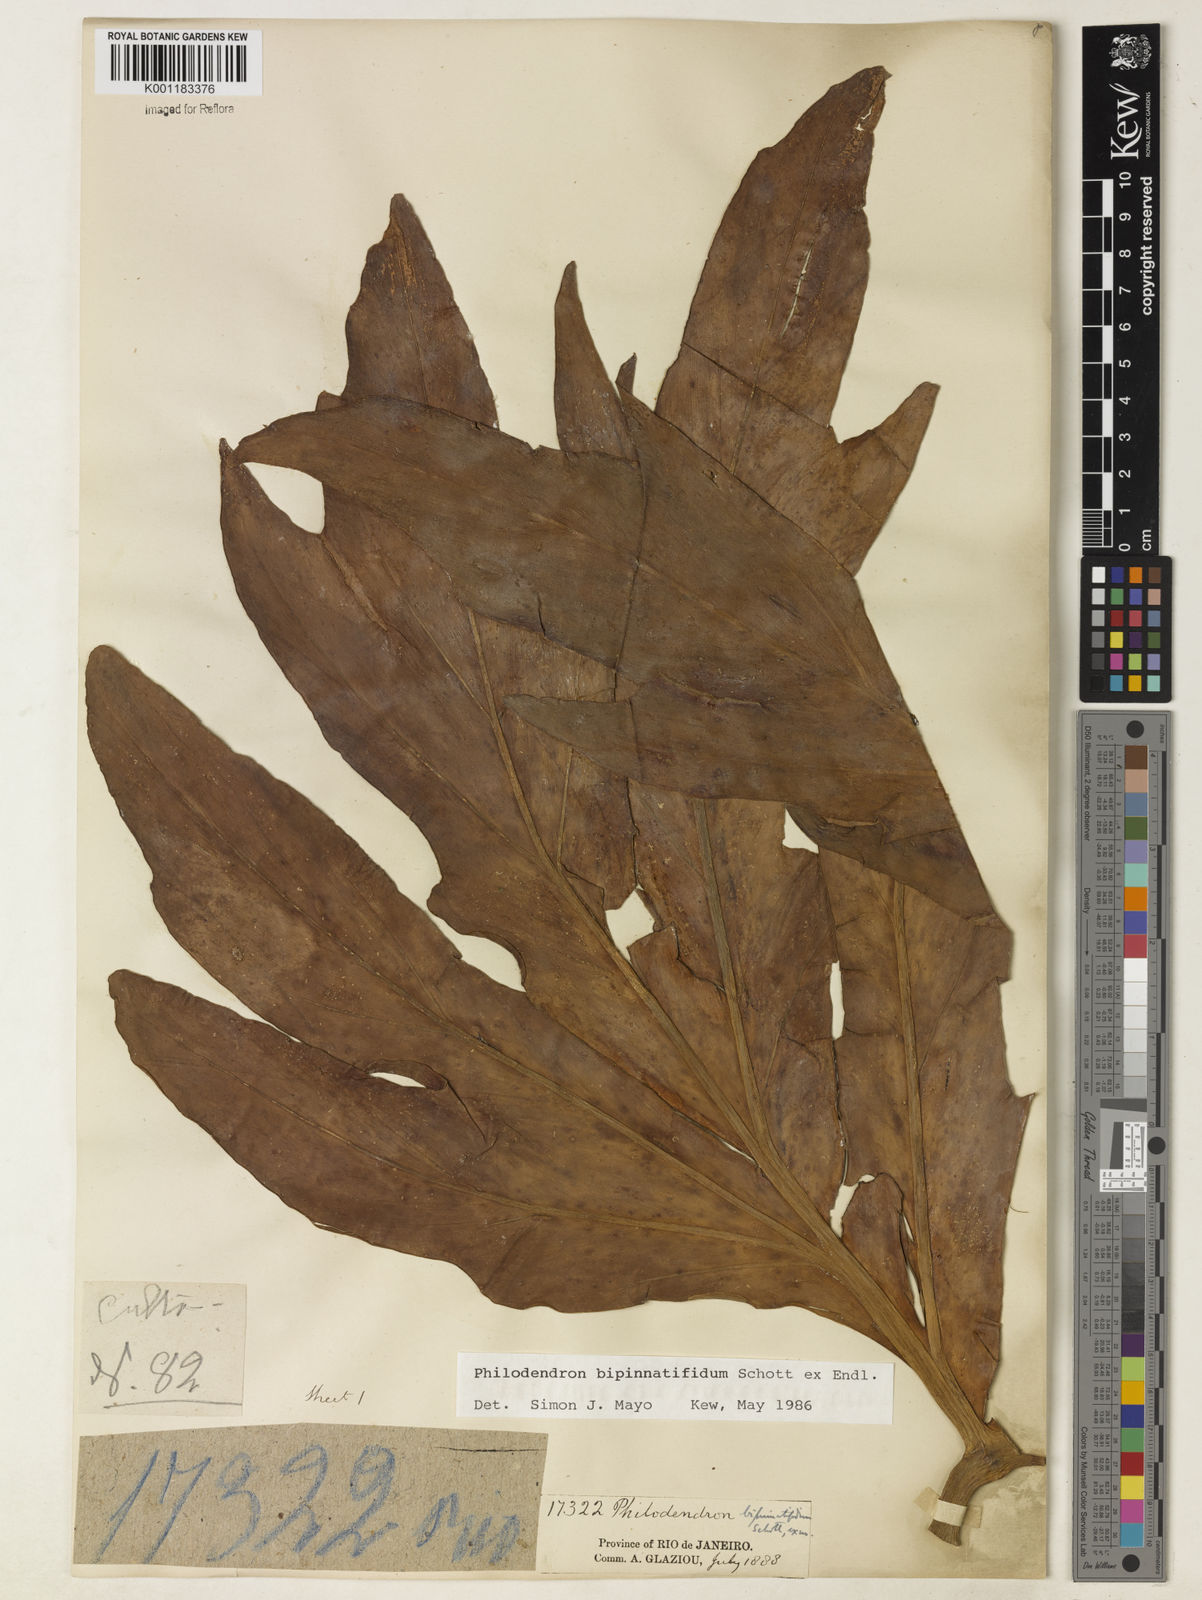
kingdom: Plantae
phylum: Tracheophyta
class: Liliopsida
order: Alismatales
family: Araceae
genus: Philodendron
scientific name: Philodendron
